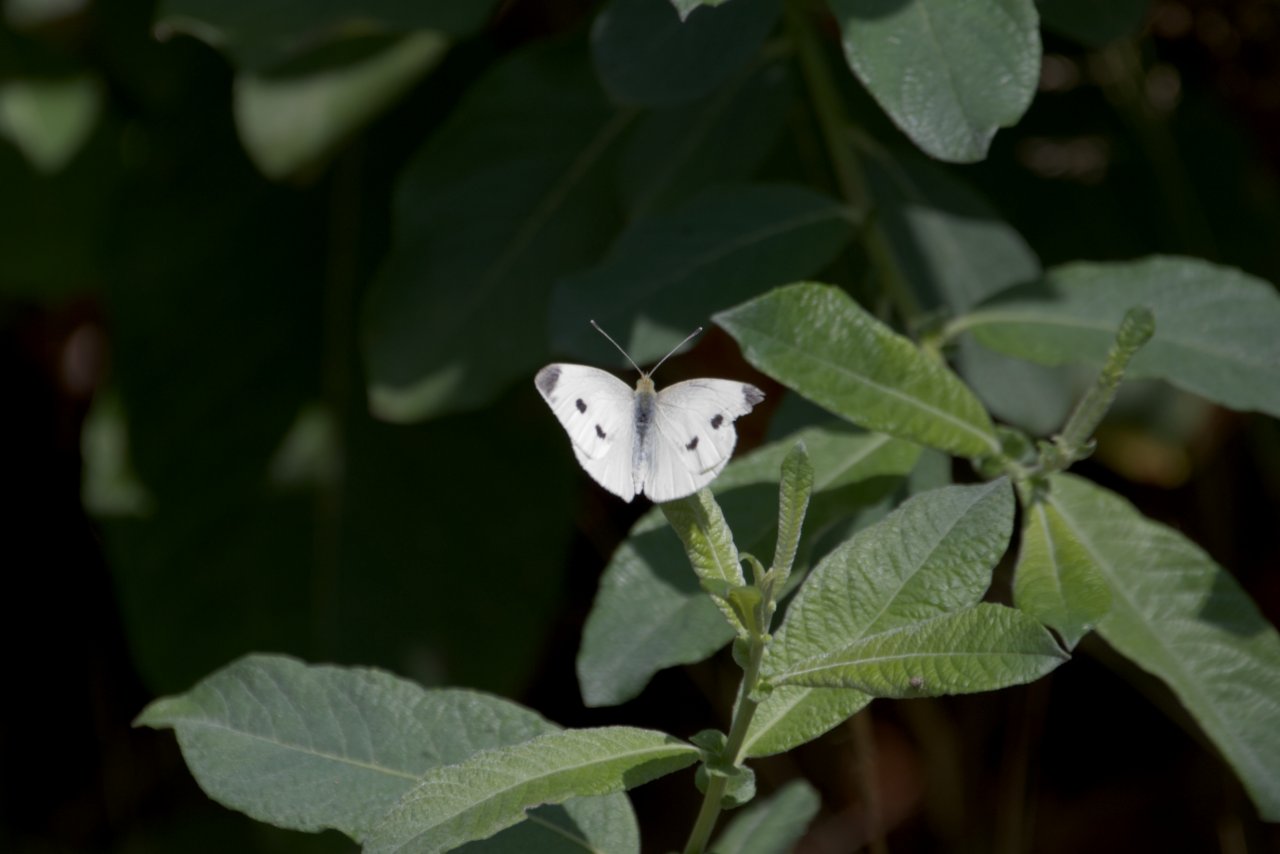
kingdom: Animalia
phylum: Arthropoda
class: Insecta
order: Lepidoptera
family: Pieridae
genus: Pieris
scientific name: Pieris rapae
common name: Cabbage White
